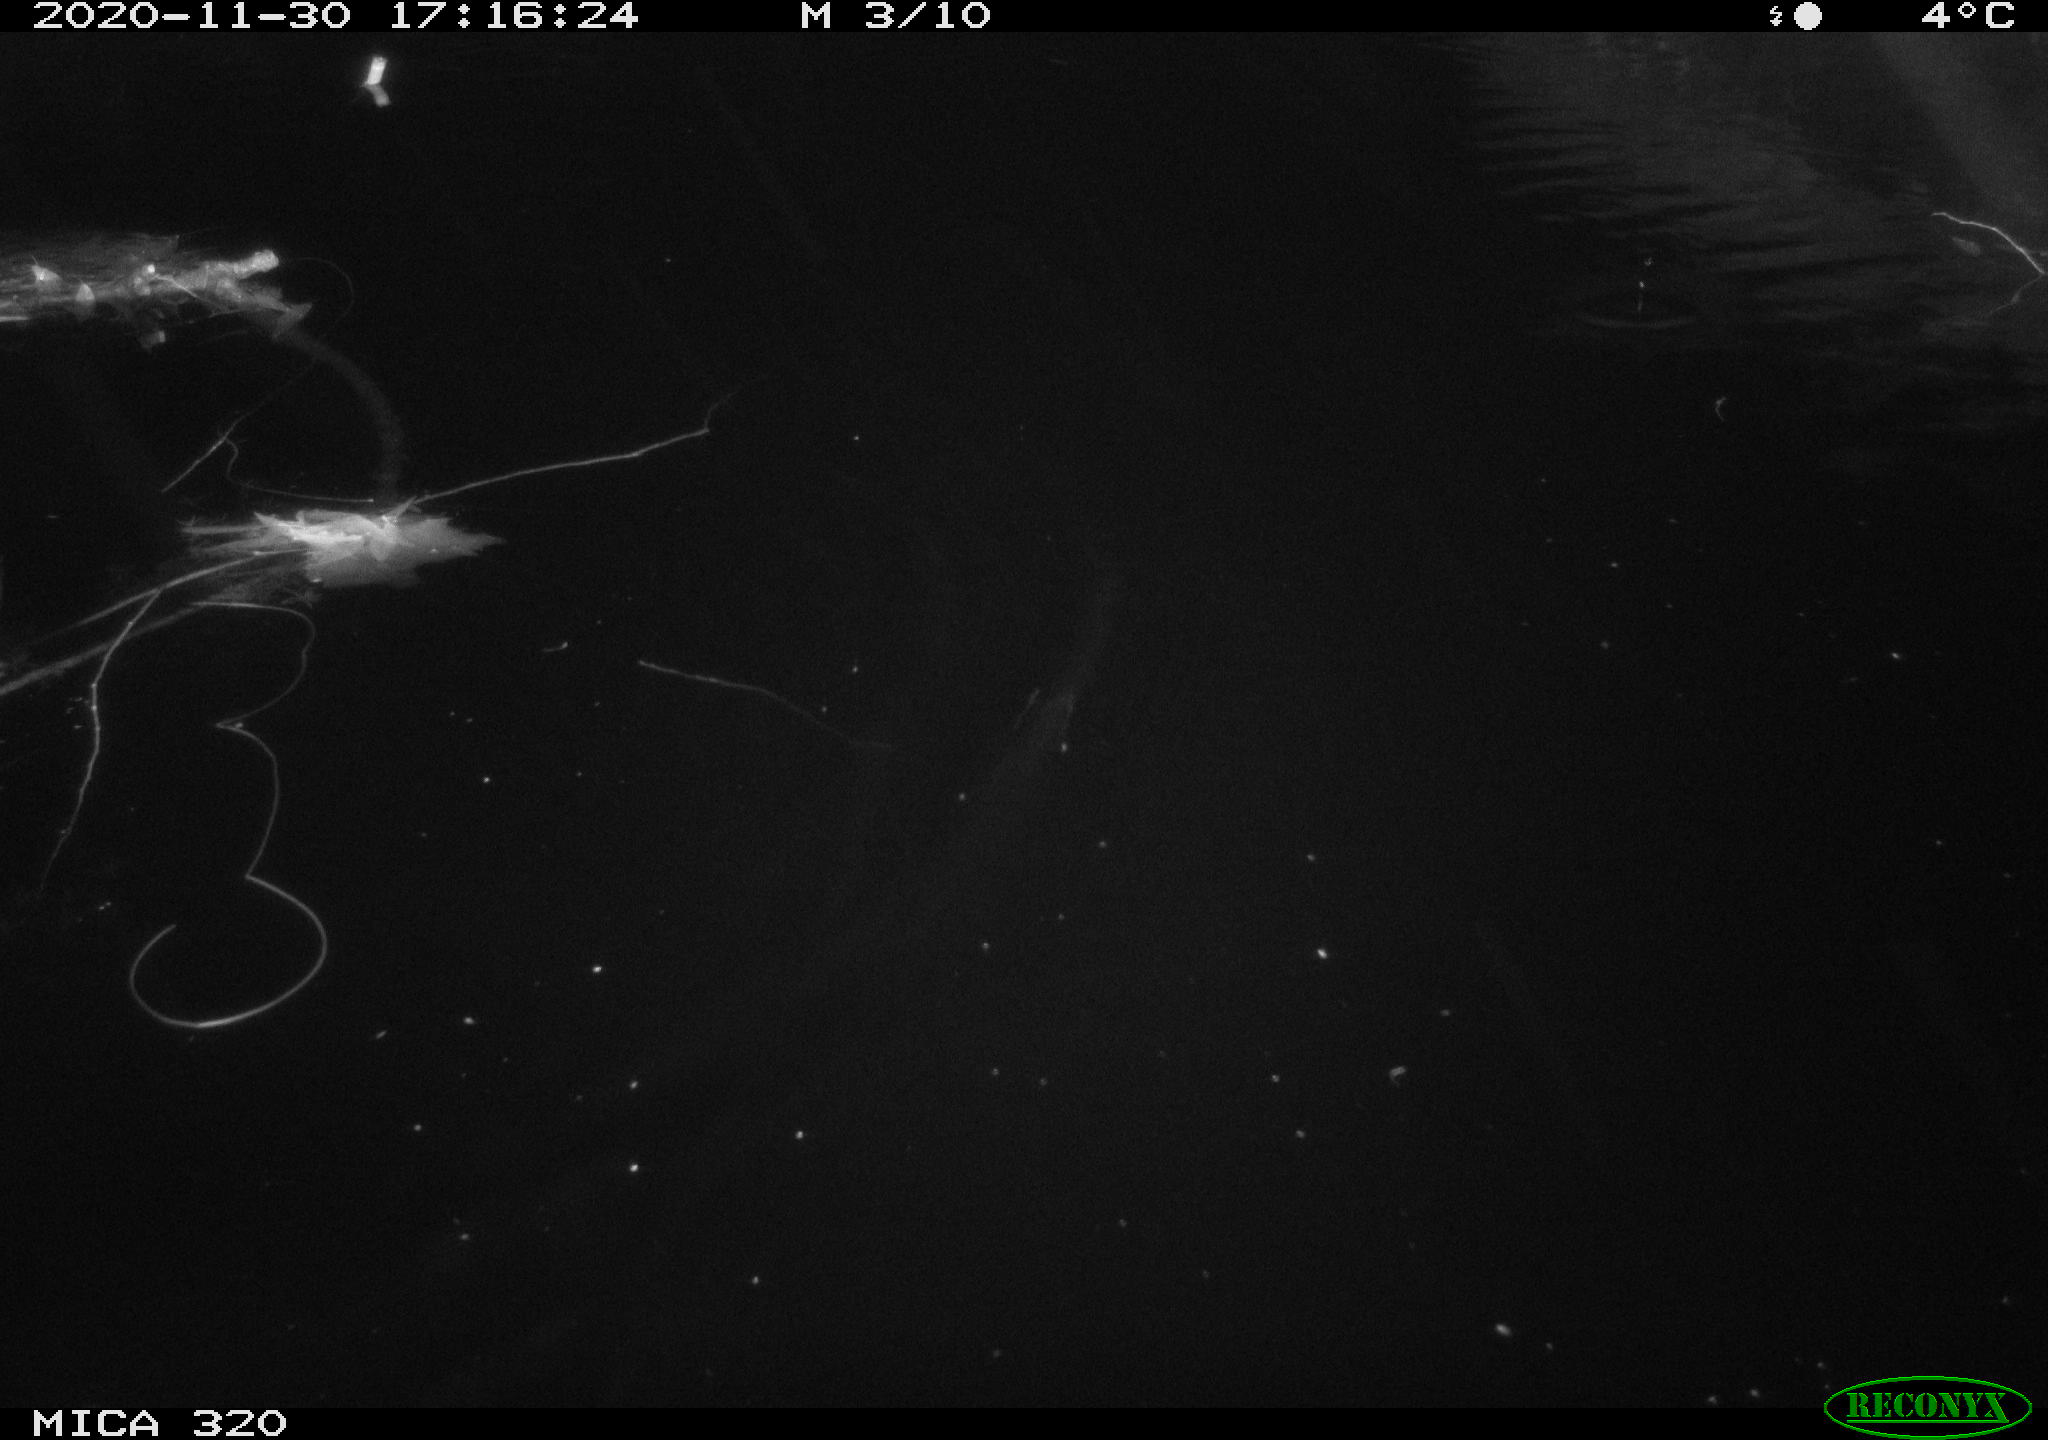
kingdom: Animalia
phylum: Chordata
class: Aves
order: Gruiformes
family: Rallidae
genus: Gallinula
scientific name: Gallinula chloropus
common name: Common moorhen
